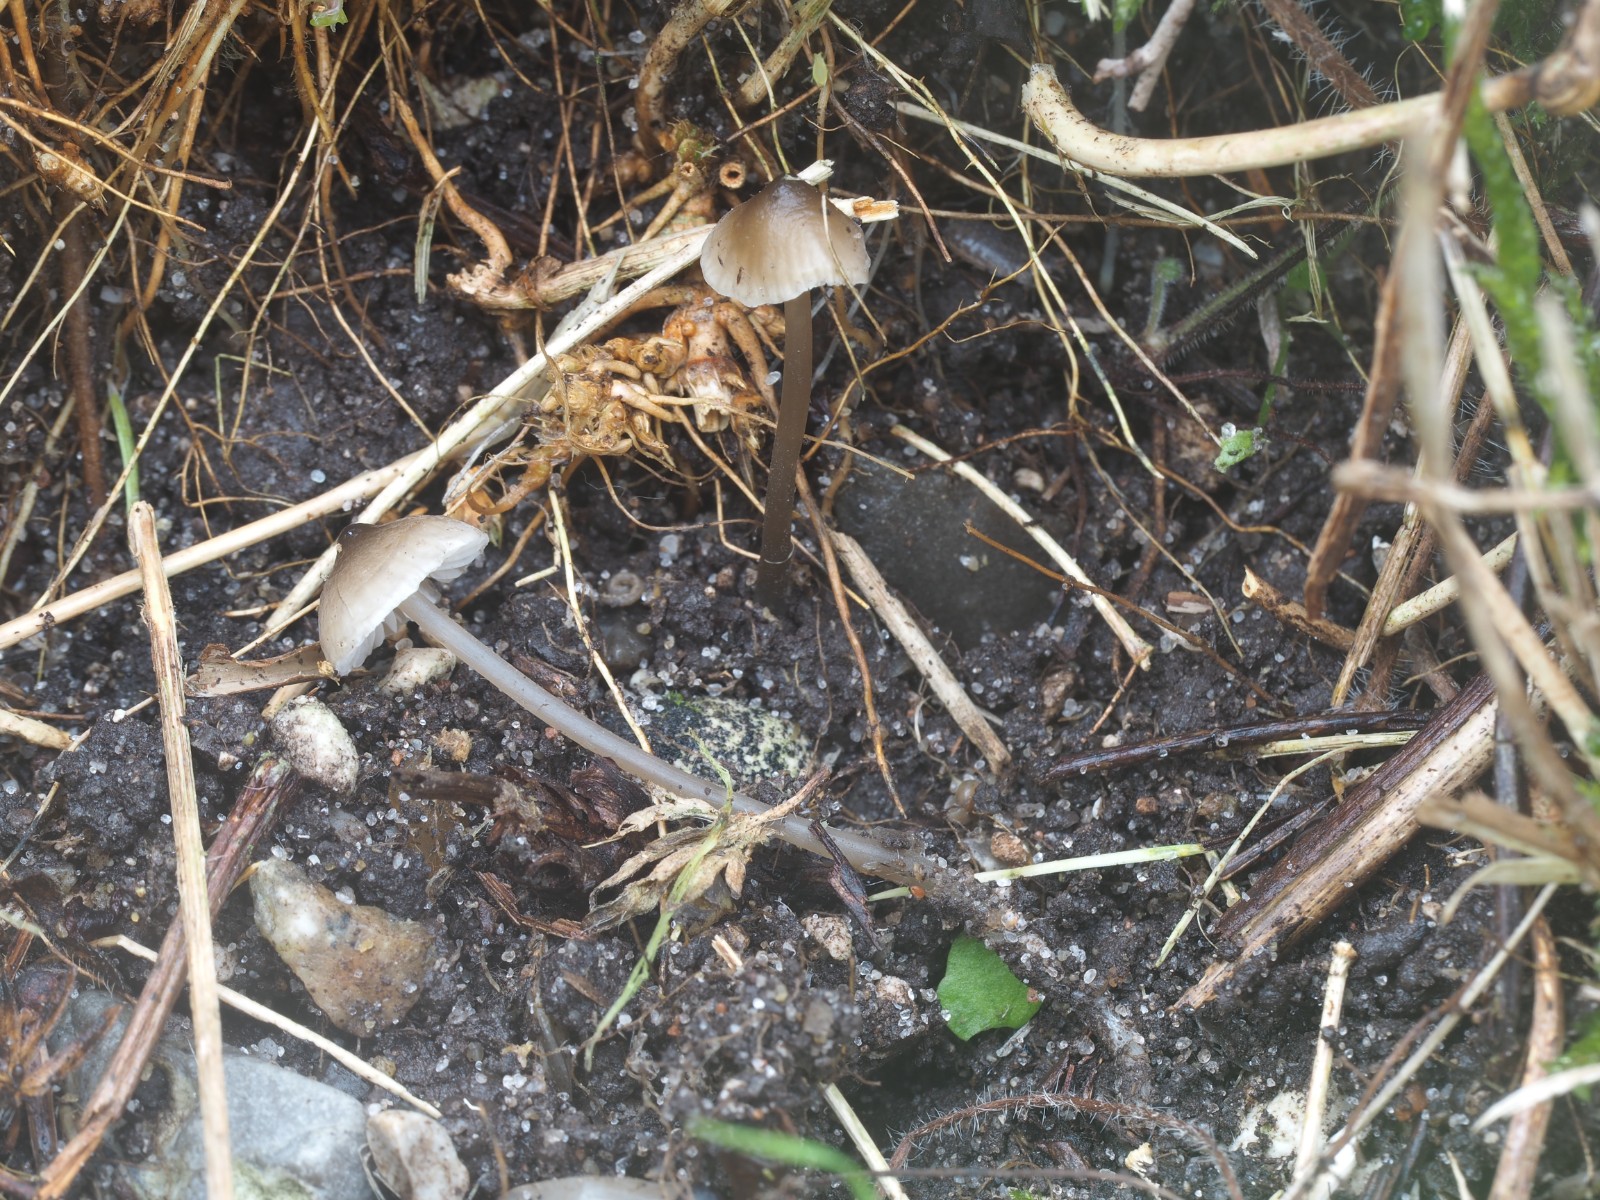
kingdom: Fungi
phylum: Basidiomycota
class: Agaricomycetes
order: Agaricales
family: Porotheleaceae
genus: Phloeomana
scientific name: Phloeomana atropapillata
